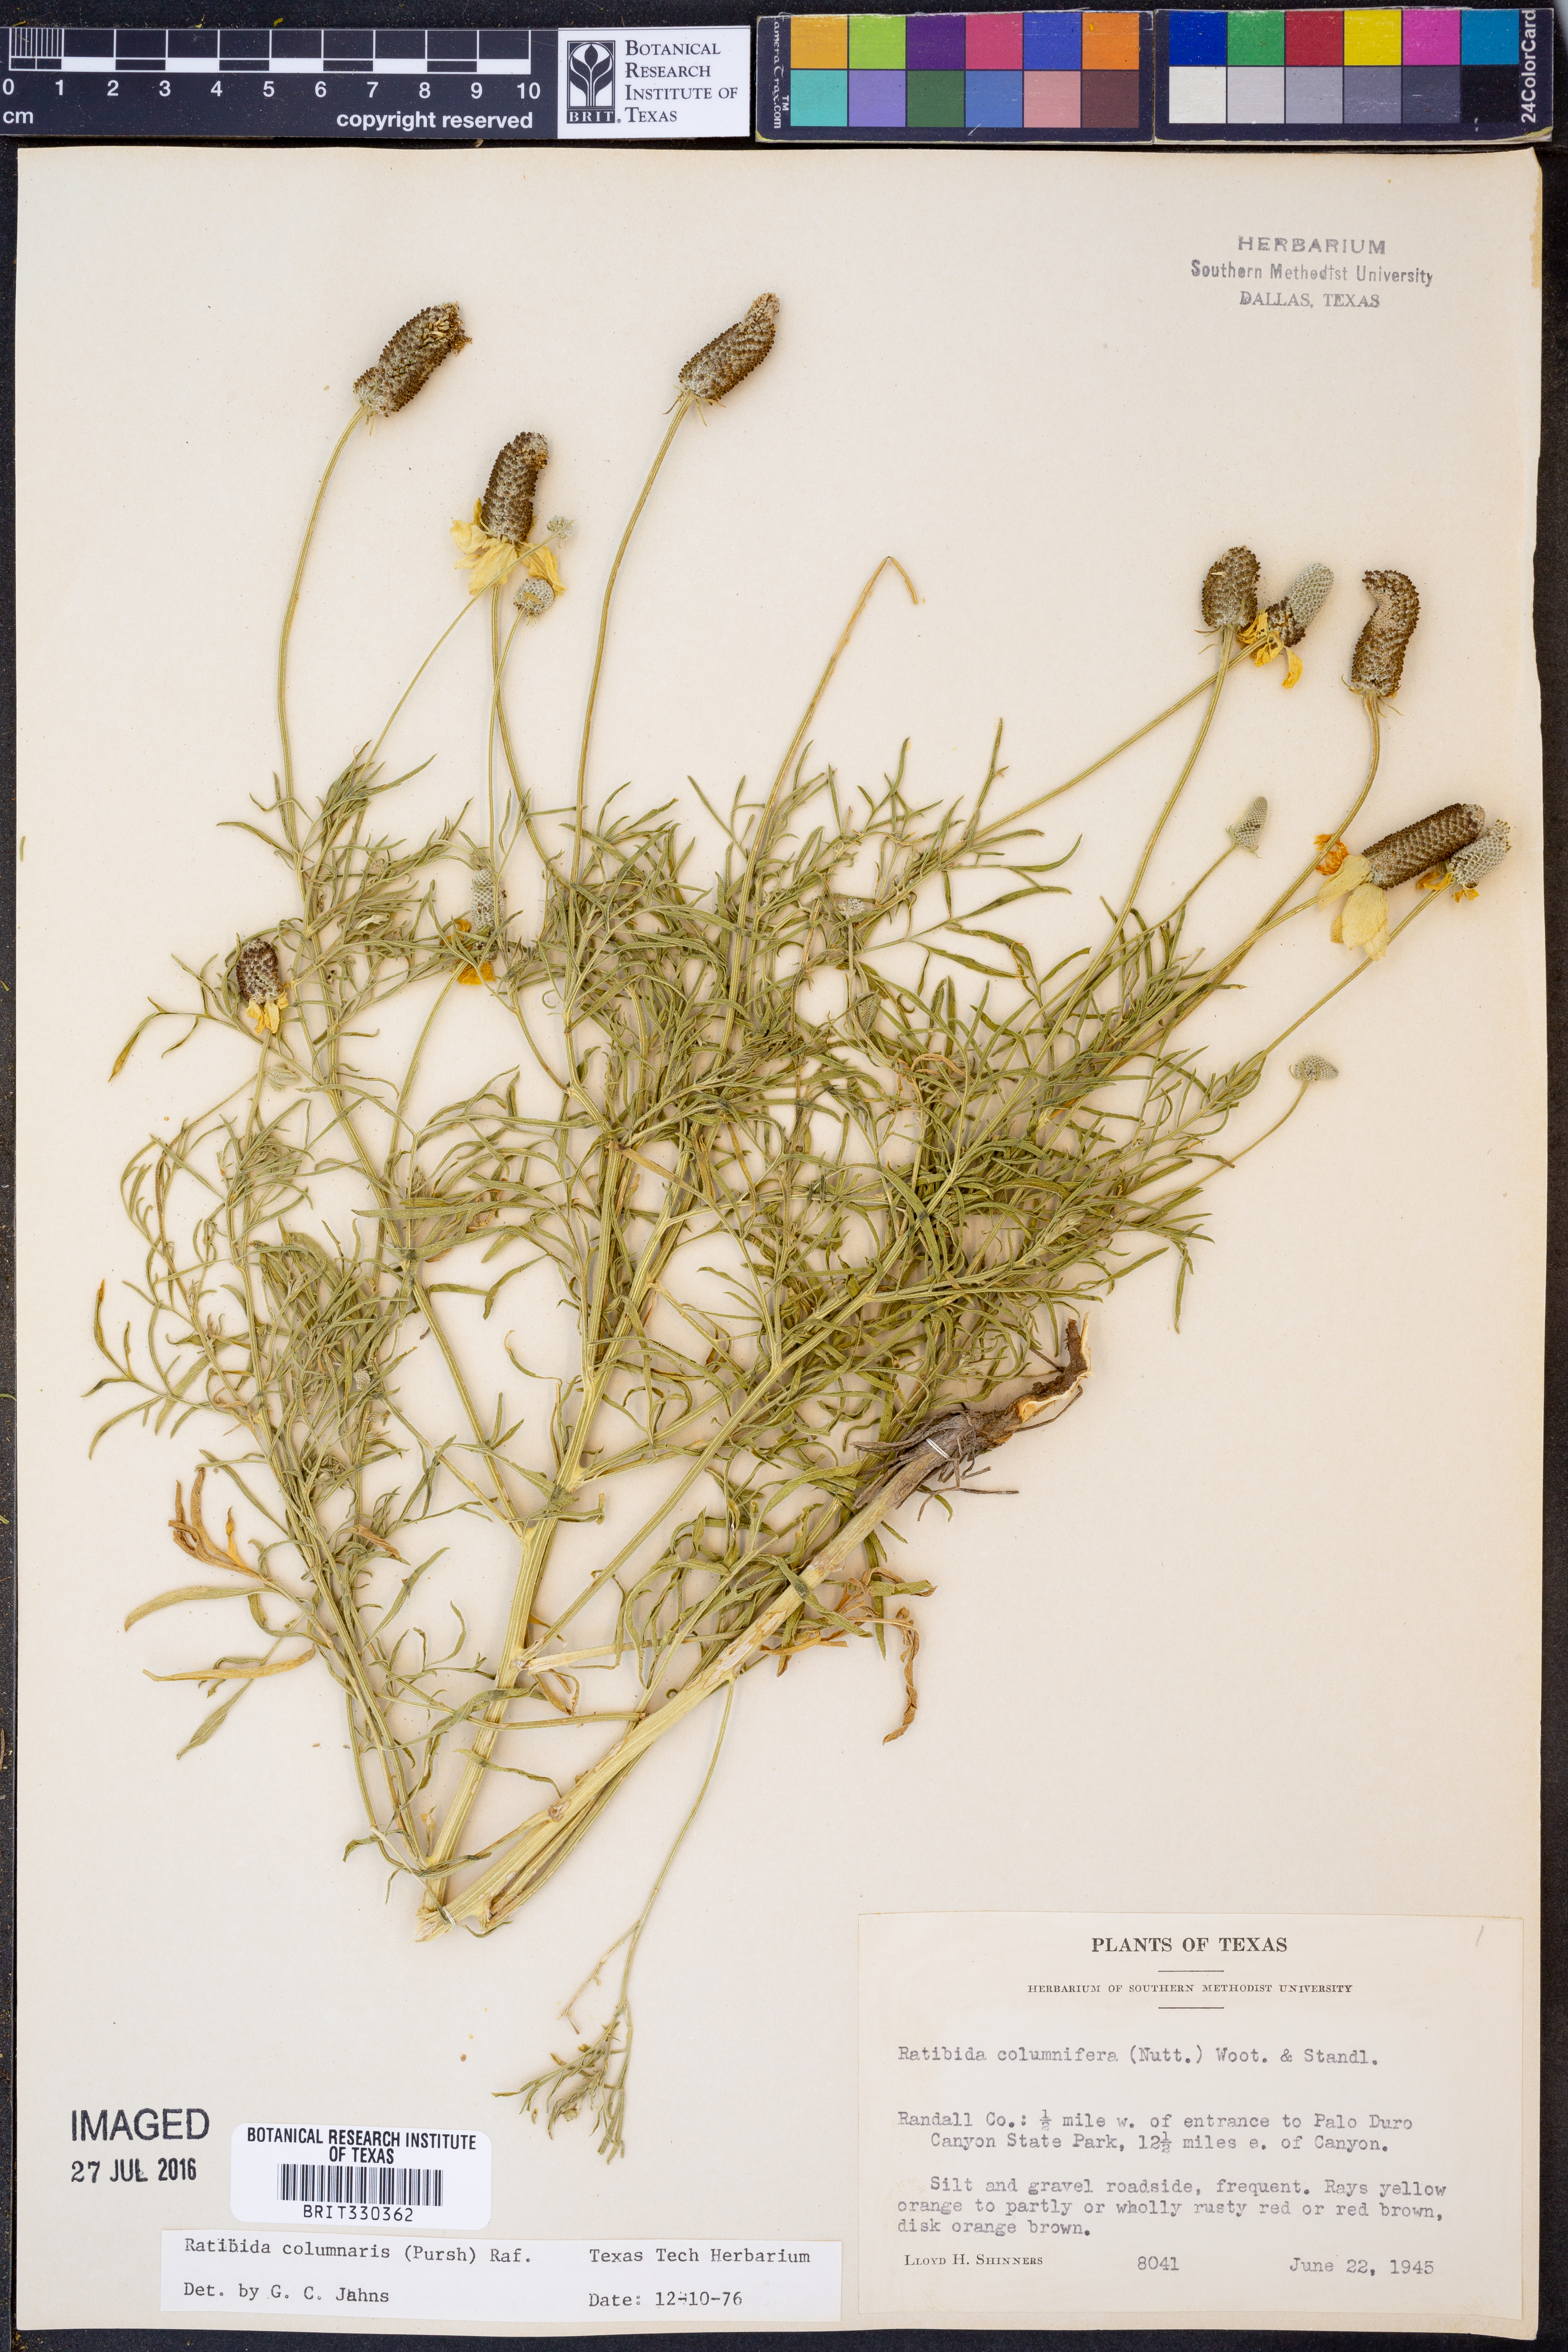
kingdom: Plantae
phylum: Tracheophyta
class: Magnoliopsida
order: Asterales
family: Asteraceae
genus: Ratibida
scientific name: Ratibida columnifera
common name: Prairie coneflower
